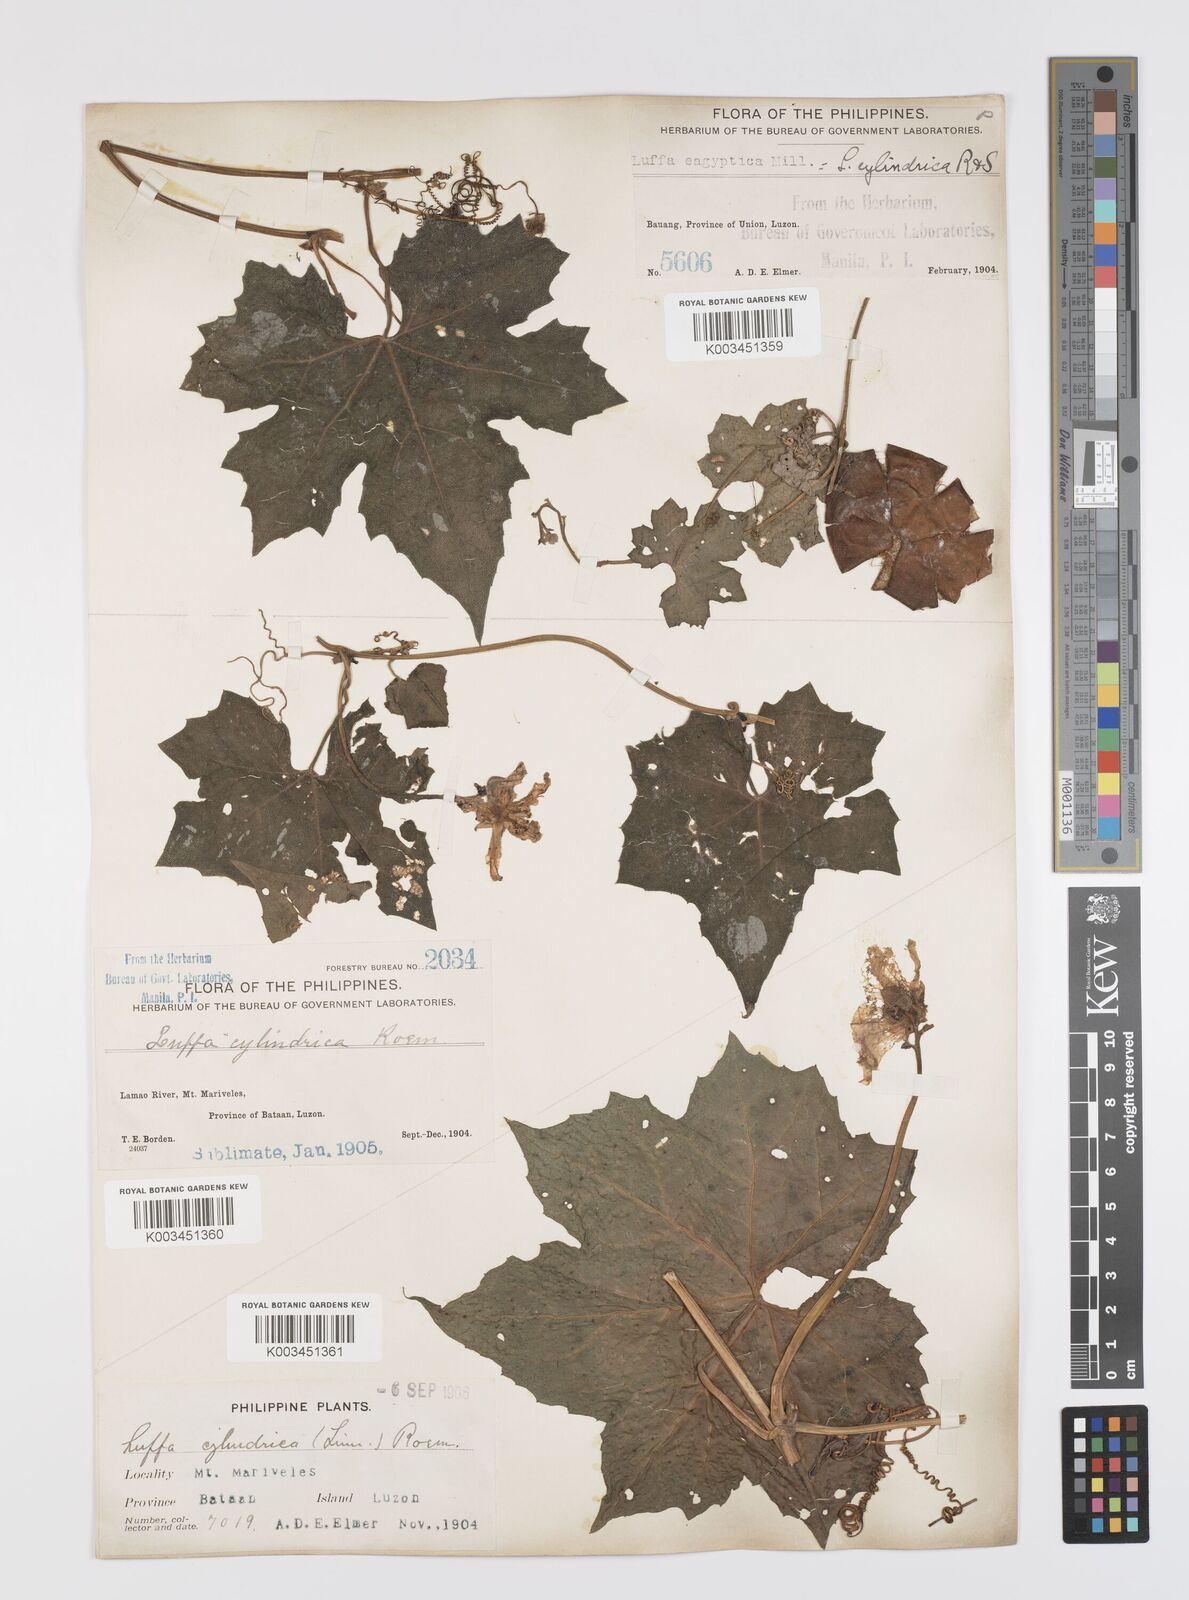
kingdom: Plantae
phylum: Tracheophyta
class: Magnoliopsida
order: Cucurbitales
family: Cucurbitaceae
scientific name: Cucurbitaceae
